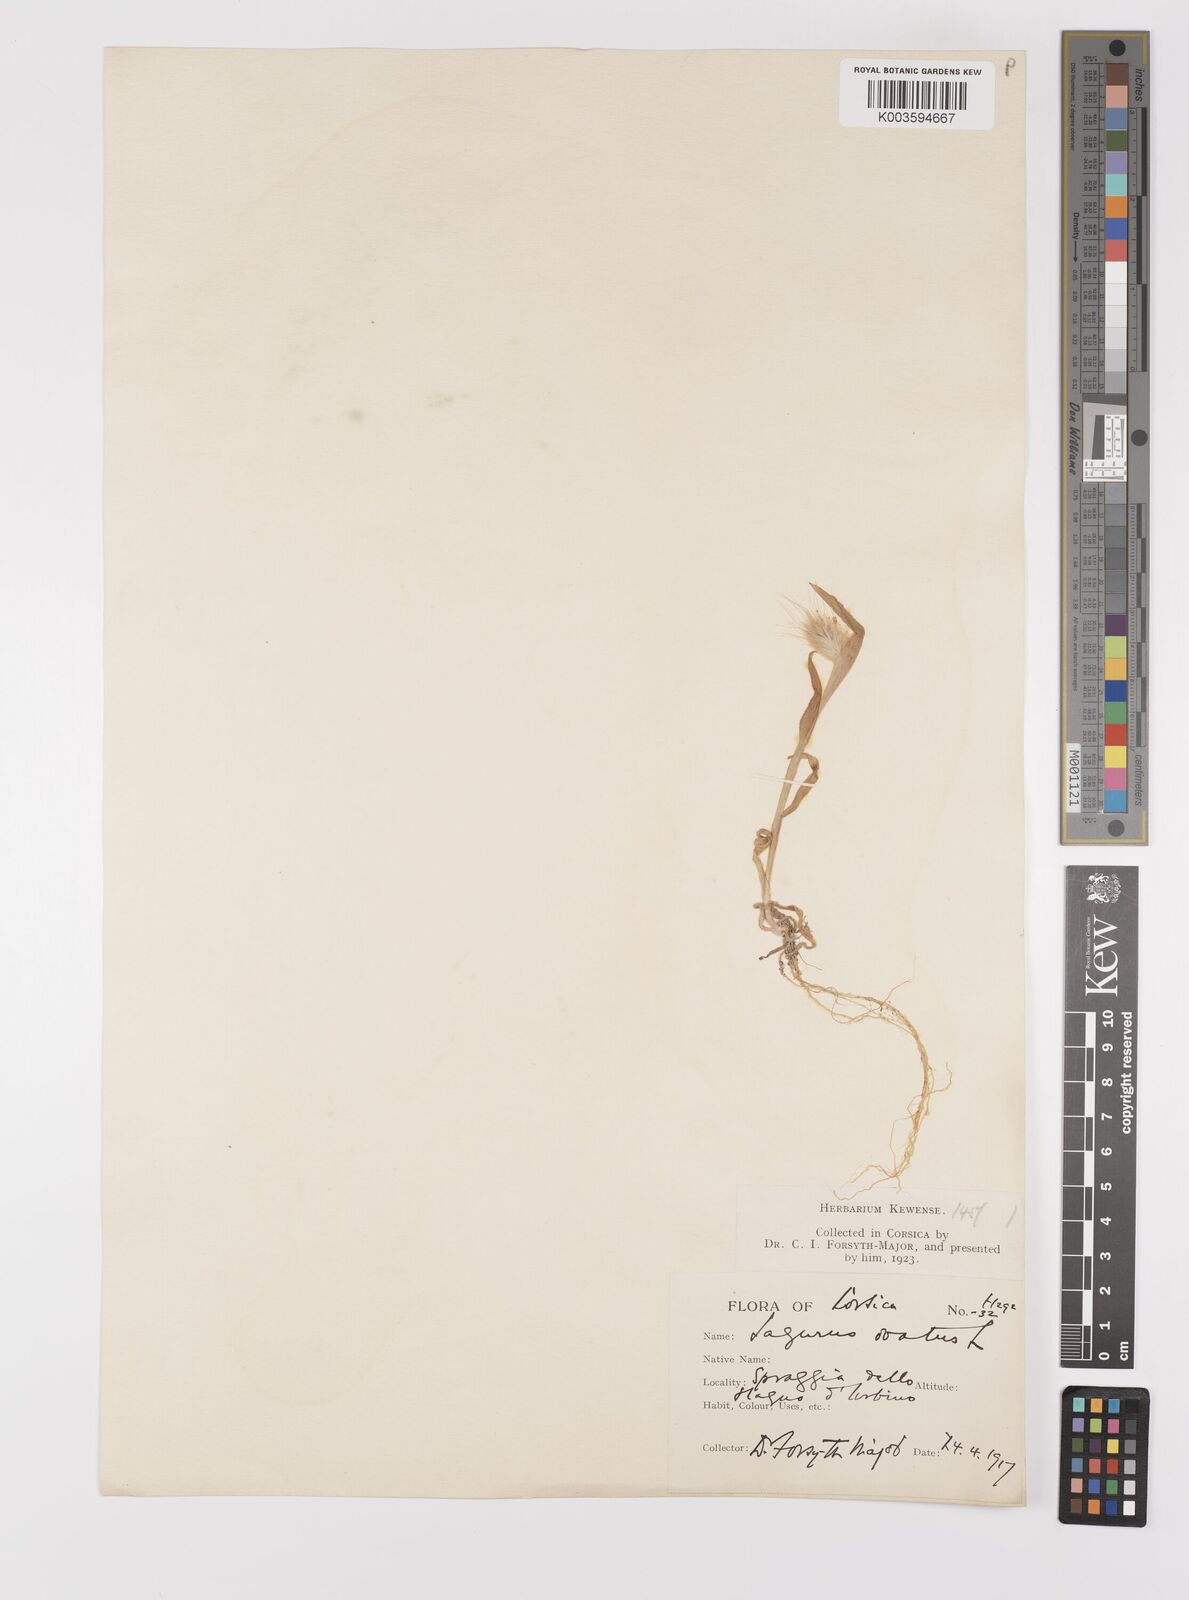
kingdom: Plantae
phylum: Tracheophyta
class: Liliopsida
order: Poales
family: Poaceae
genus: Lagurus
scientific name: Lagurus ovatus
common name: Hare's-tail
